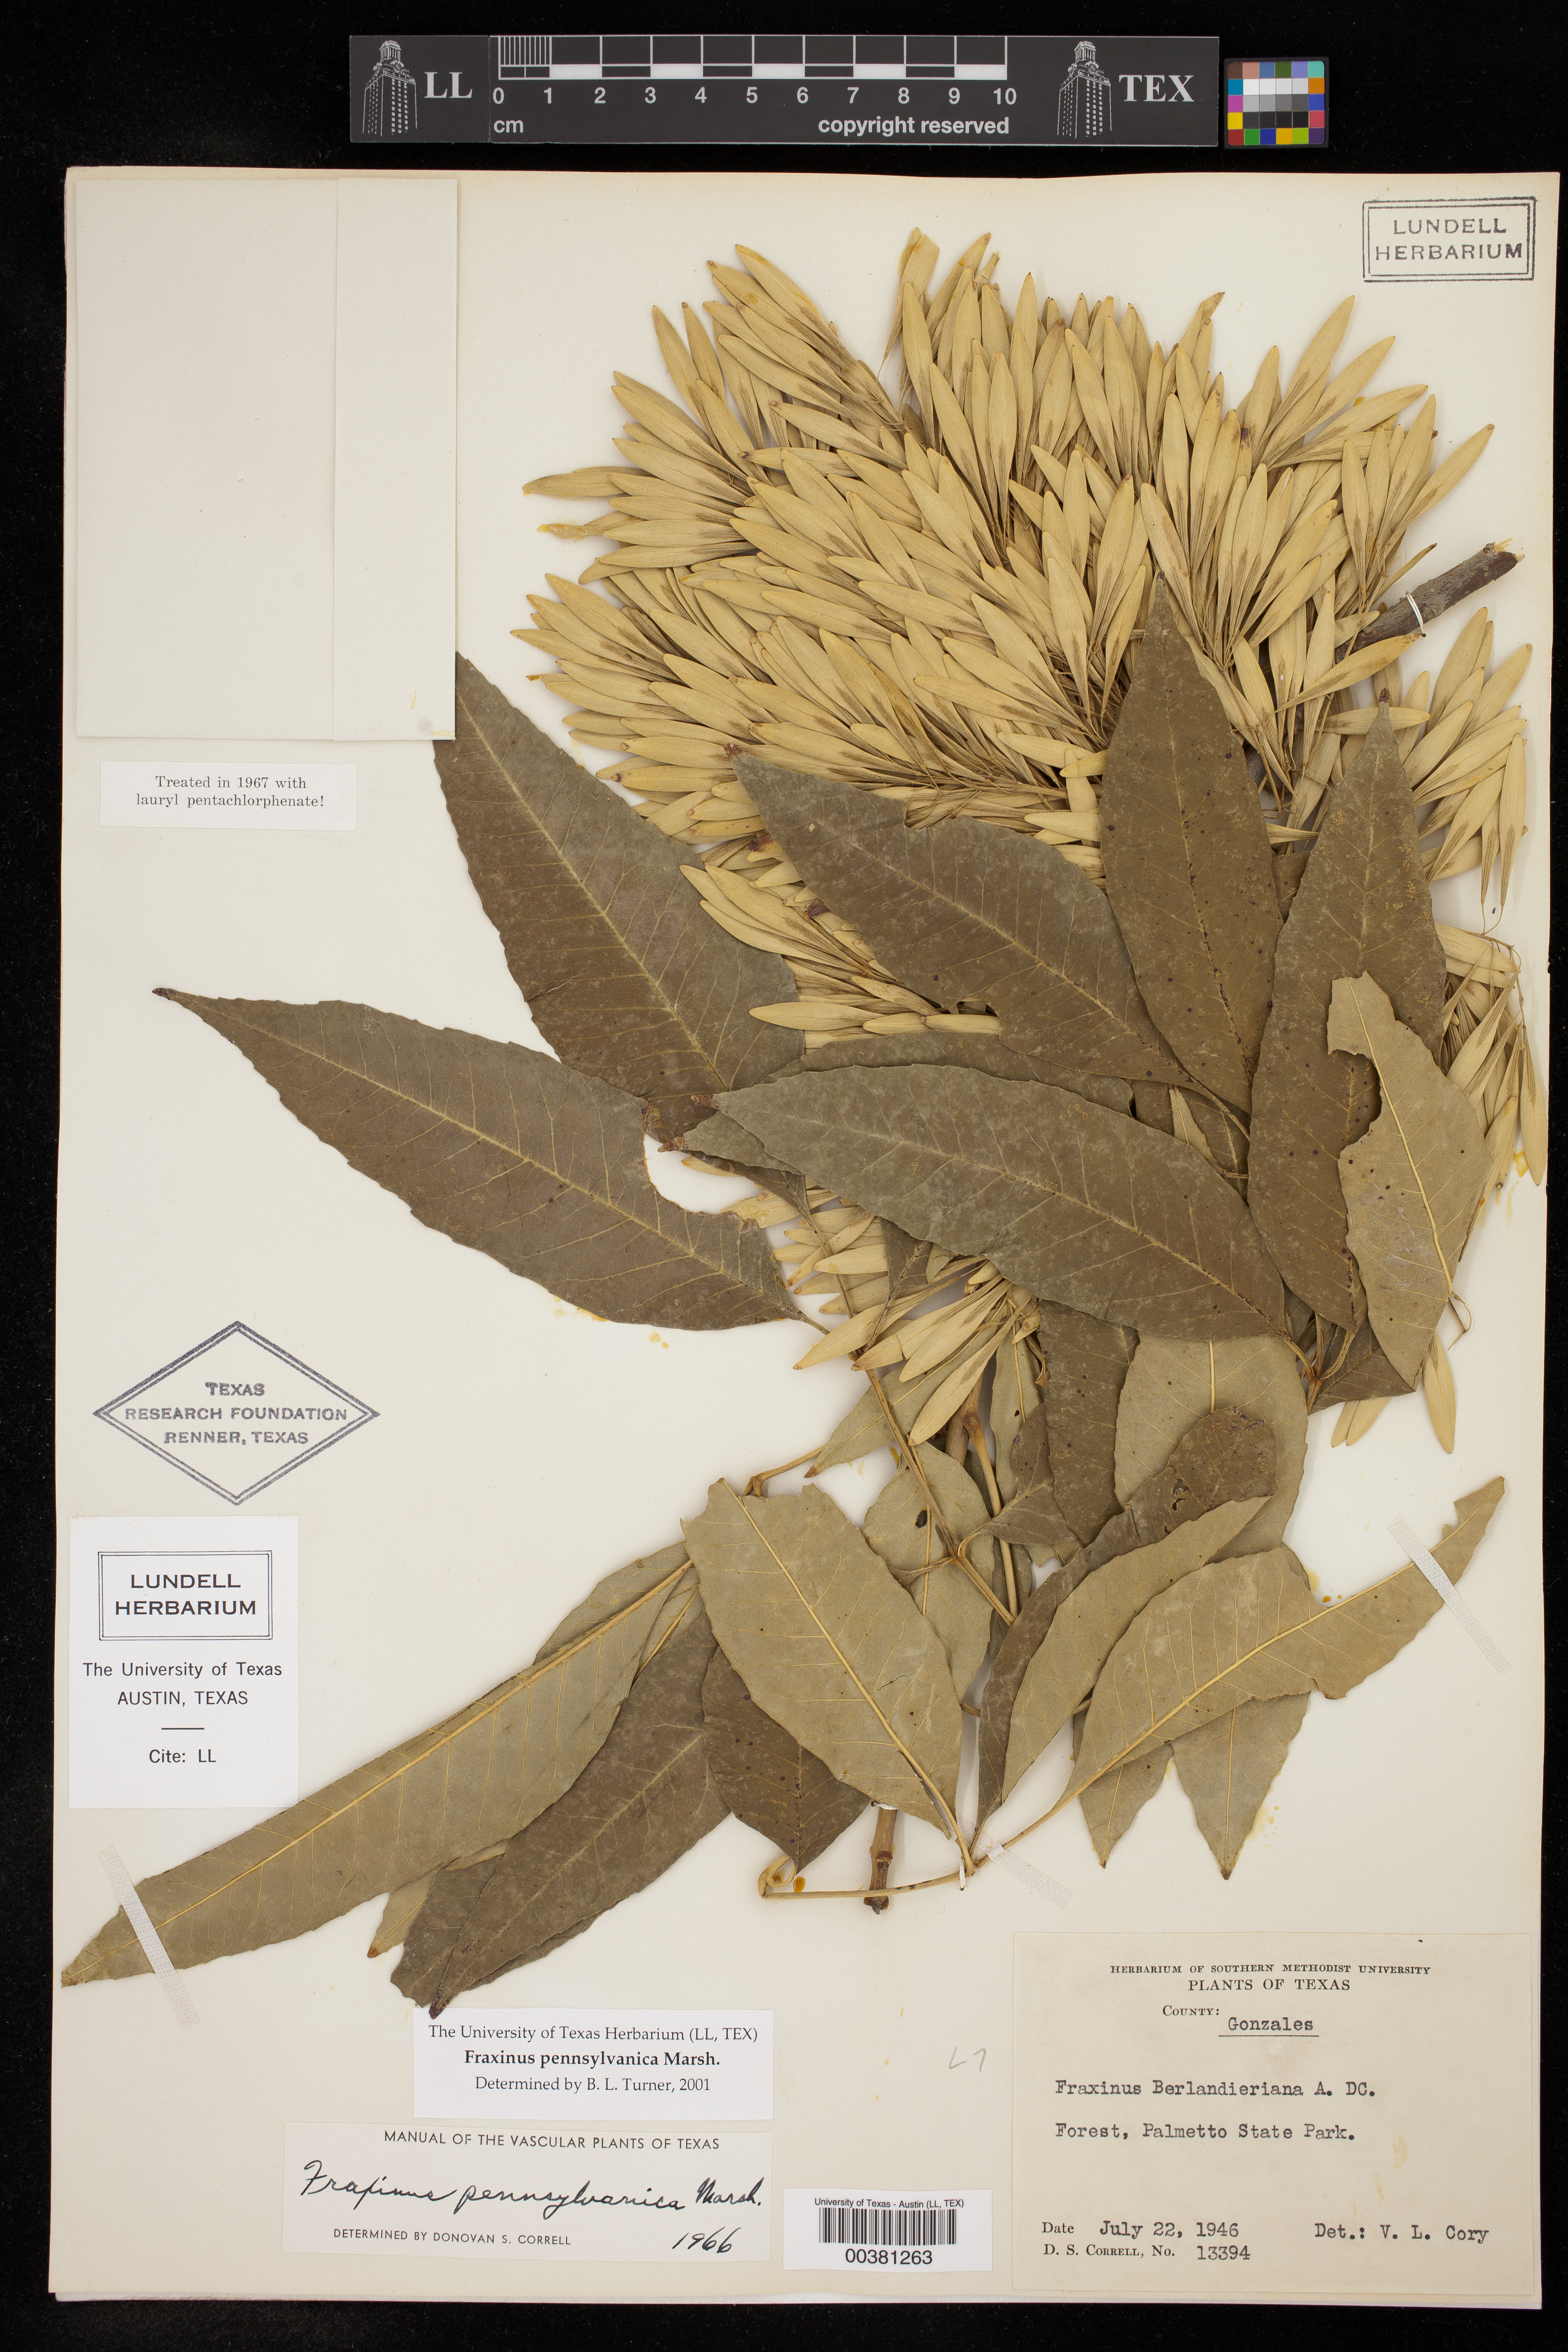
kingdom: Plantae
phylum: Tracheophyta
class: Magnoliopsida
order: Lamiales
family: Oleaceae
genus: Fraxinus
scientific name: Fraxinus pennsylvanica
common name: Green ash
